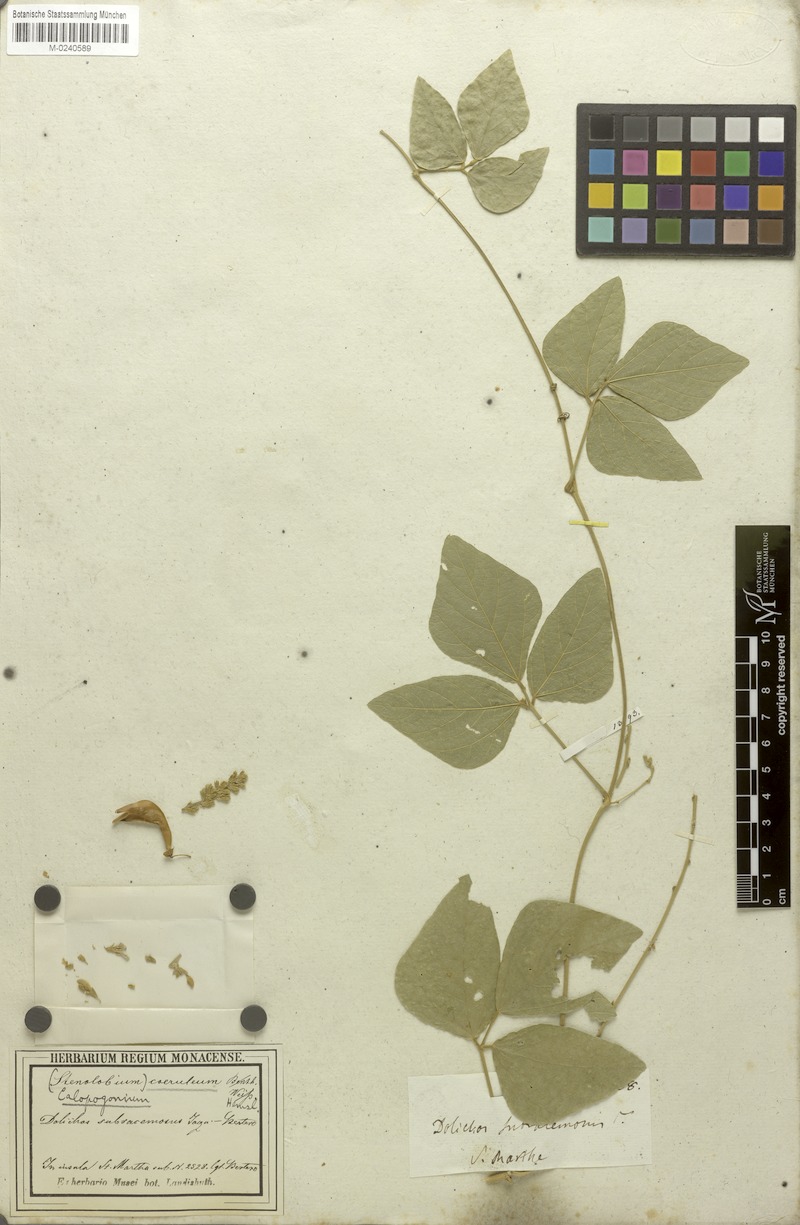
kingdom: Plantae
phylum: Tracheophyta
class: Magnoliopsida
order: Fabales
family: Fabaceae
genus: Calopogonium
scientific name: Calopogonium caeruleum
